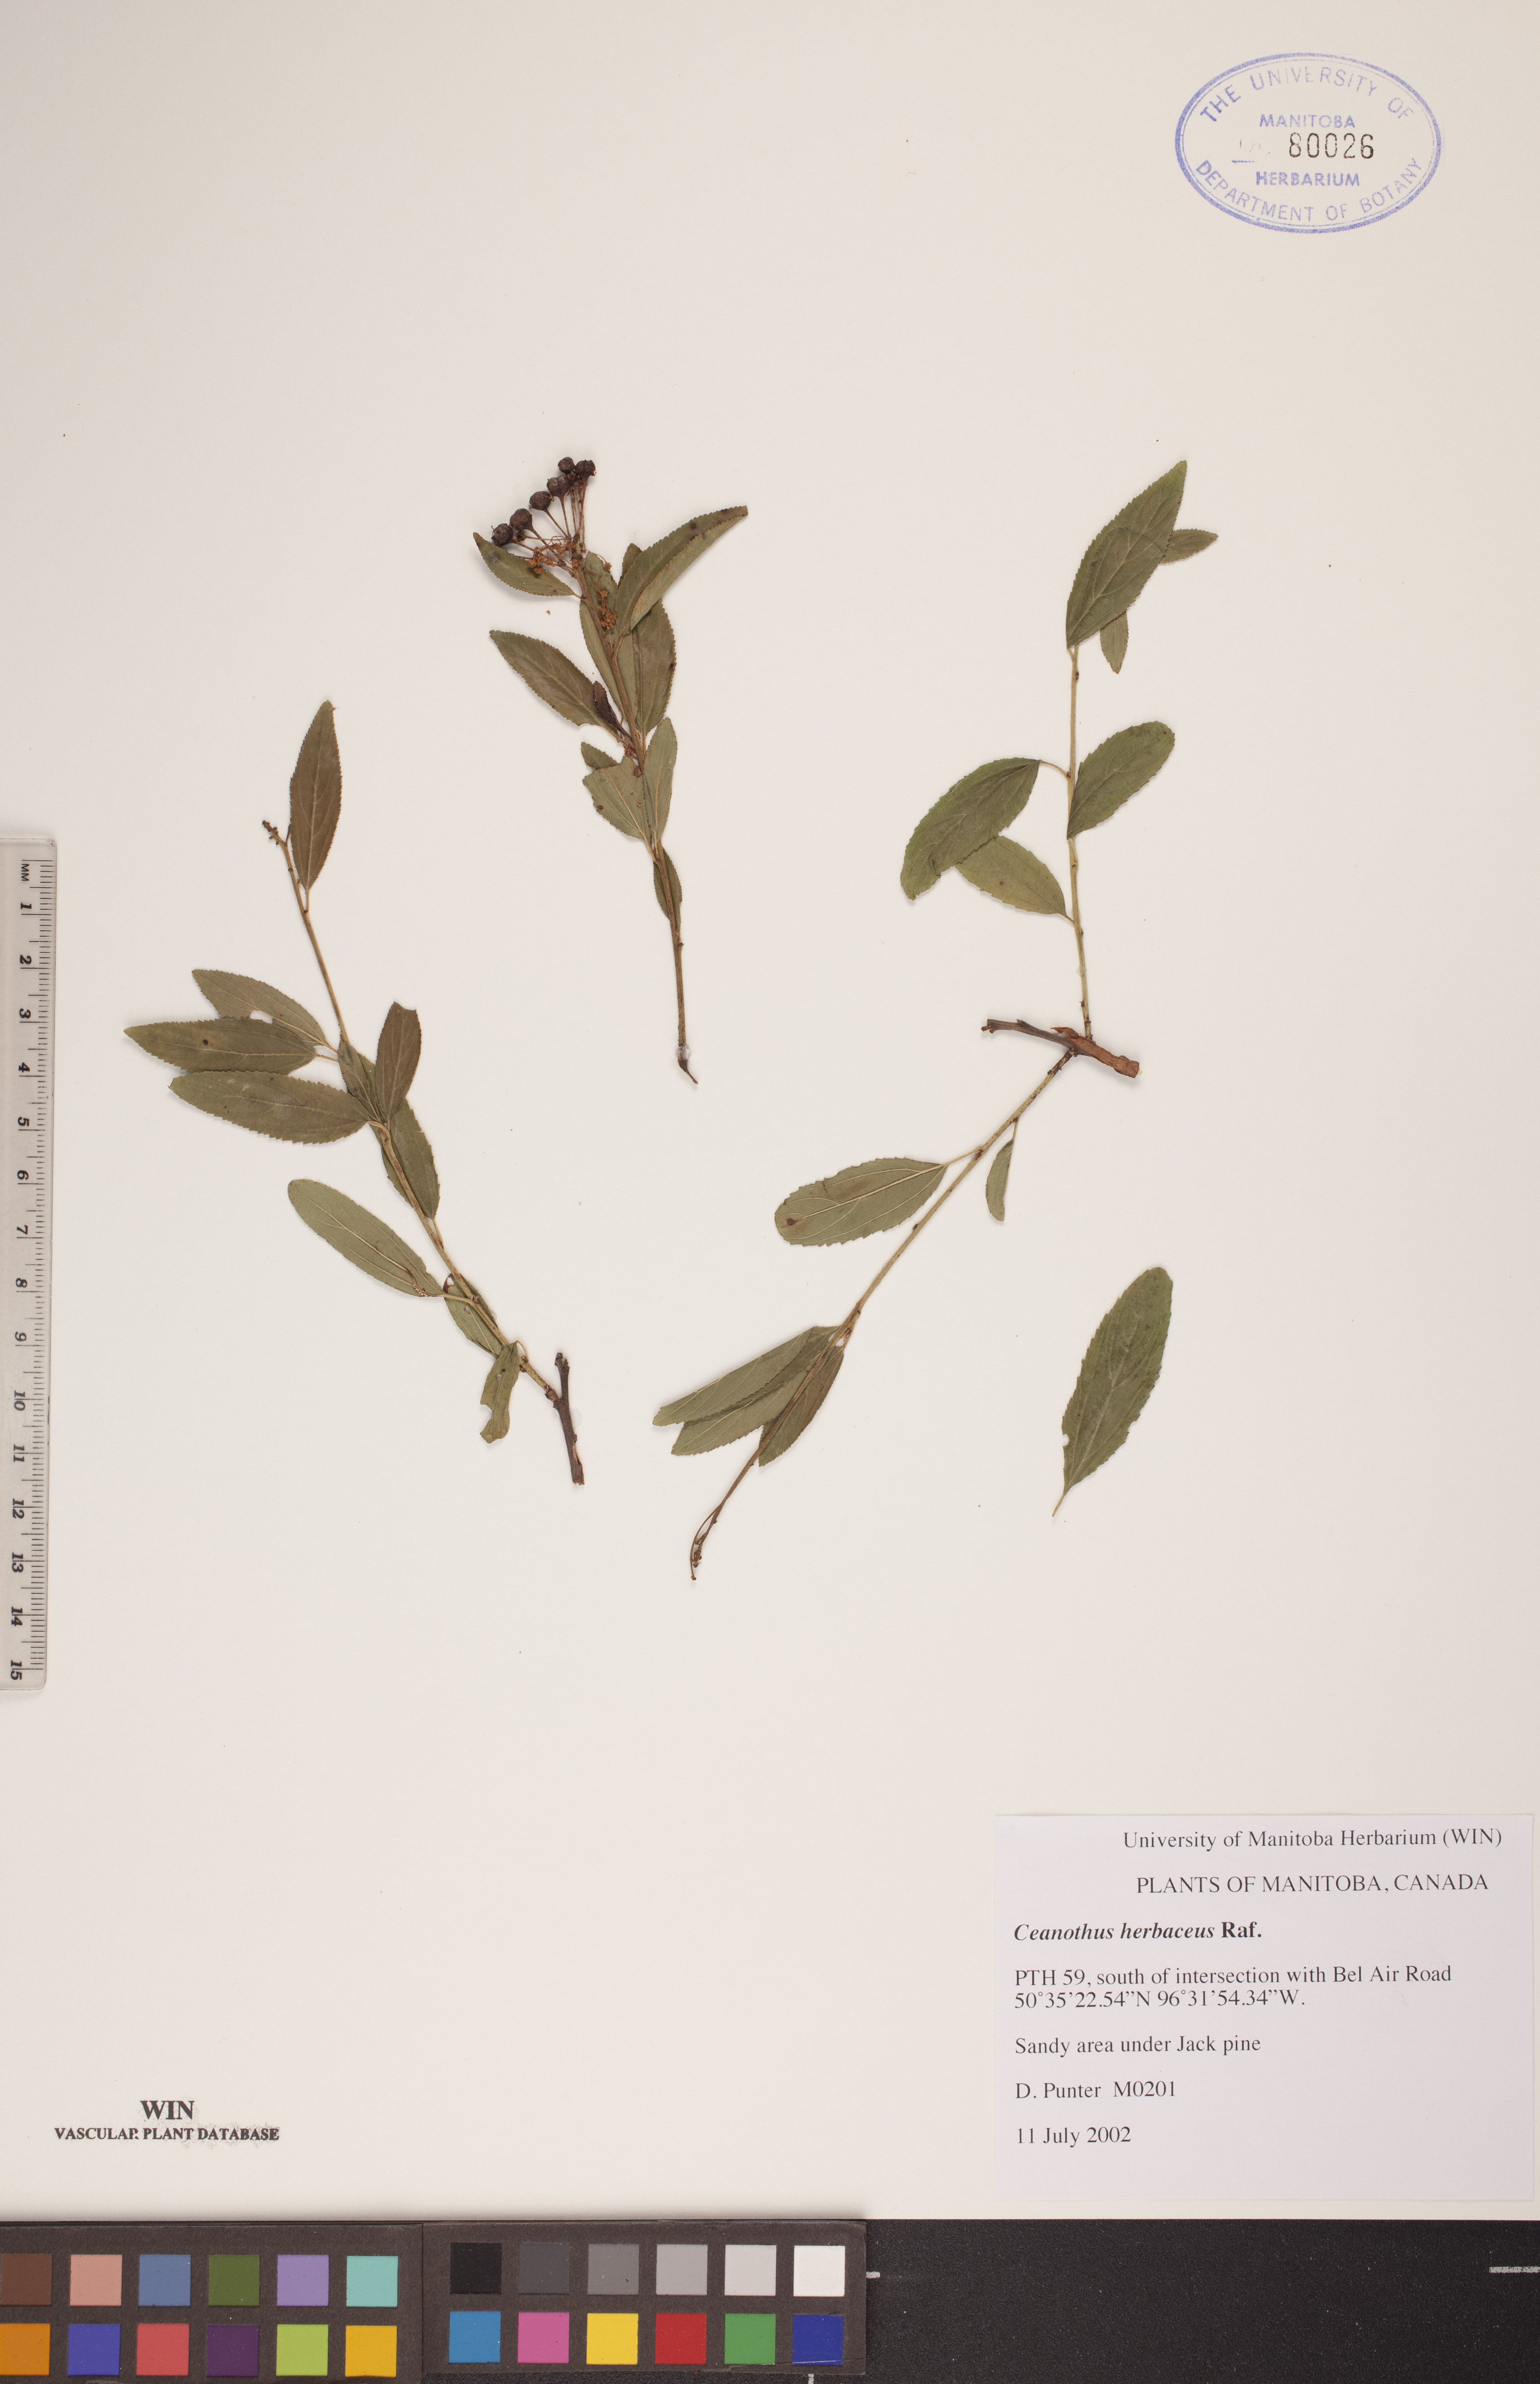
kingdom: Plantae
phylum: Tracheophyta
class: Magnoliopsida
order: Rosales
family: Rhamnaceae
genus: Ceanothus
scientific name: Ceanothus herbaceus
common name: Inland ceanothus
